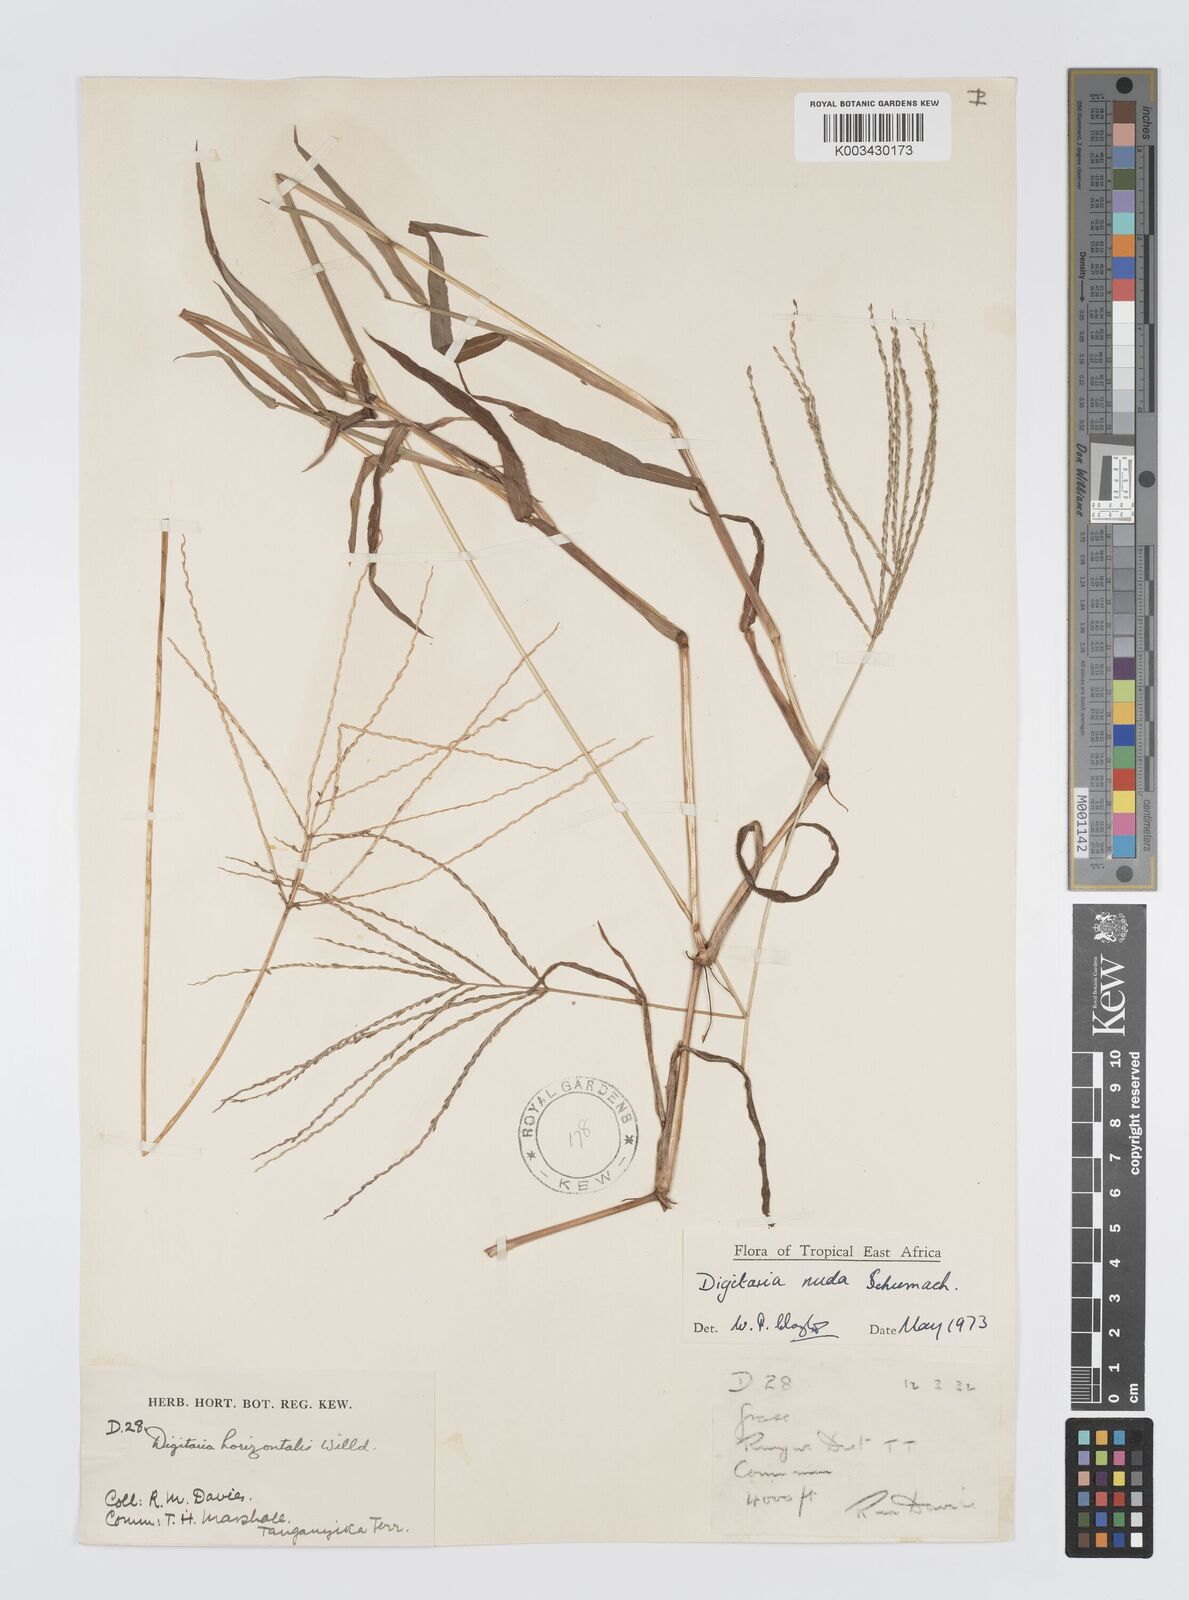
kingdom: Plantae
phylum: Tracheophyta
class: Liliopsida
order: Poales
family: Poaceae
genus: Digitaria
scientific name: Digitaria nuda
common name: Naked crabgrass
